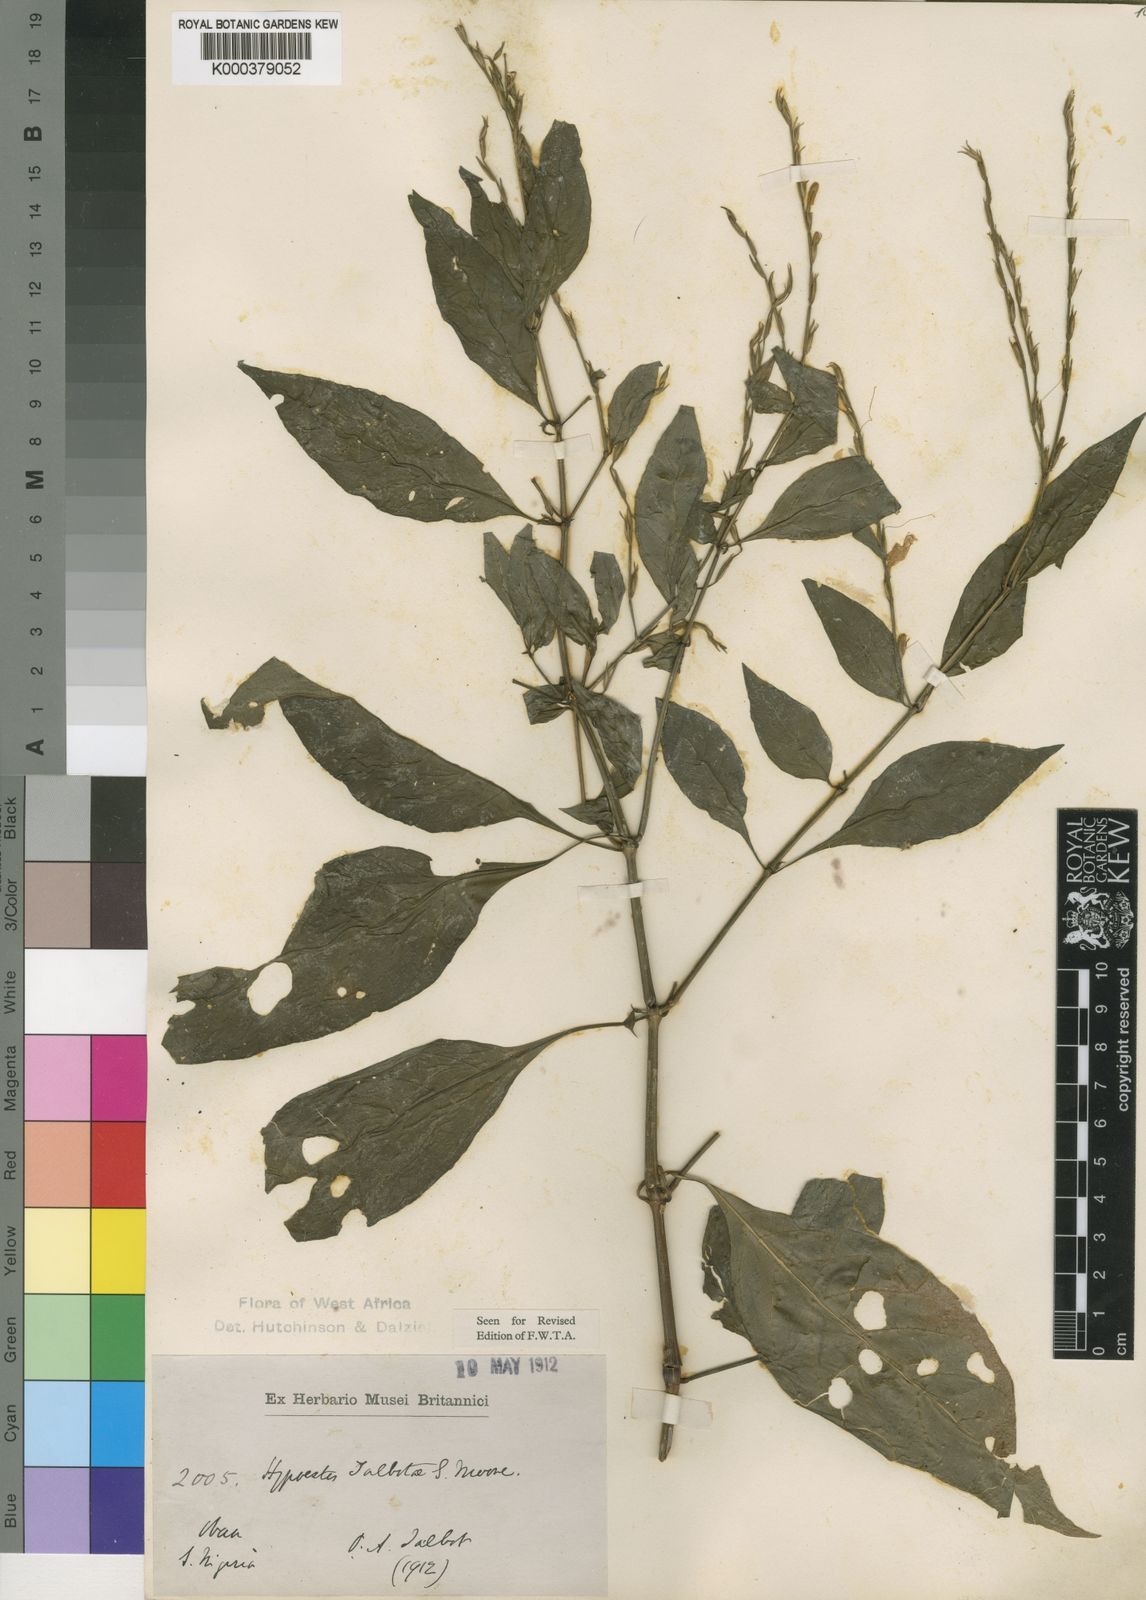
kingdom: Plantae
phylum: Tracheophyta
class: Magnoliopsida
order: Lamiales
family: Acanthaceae
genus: Hypoestes
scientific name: Hypoestes rosea
